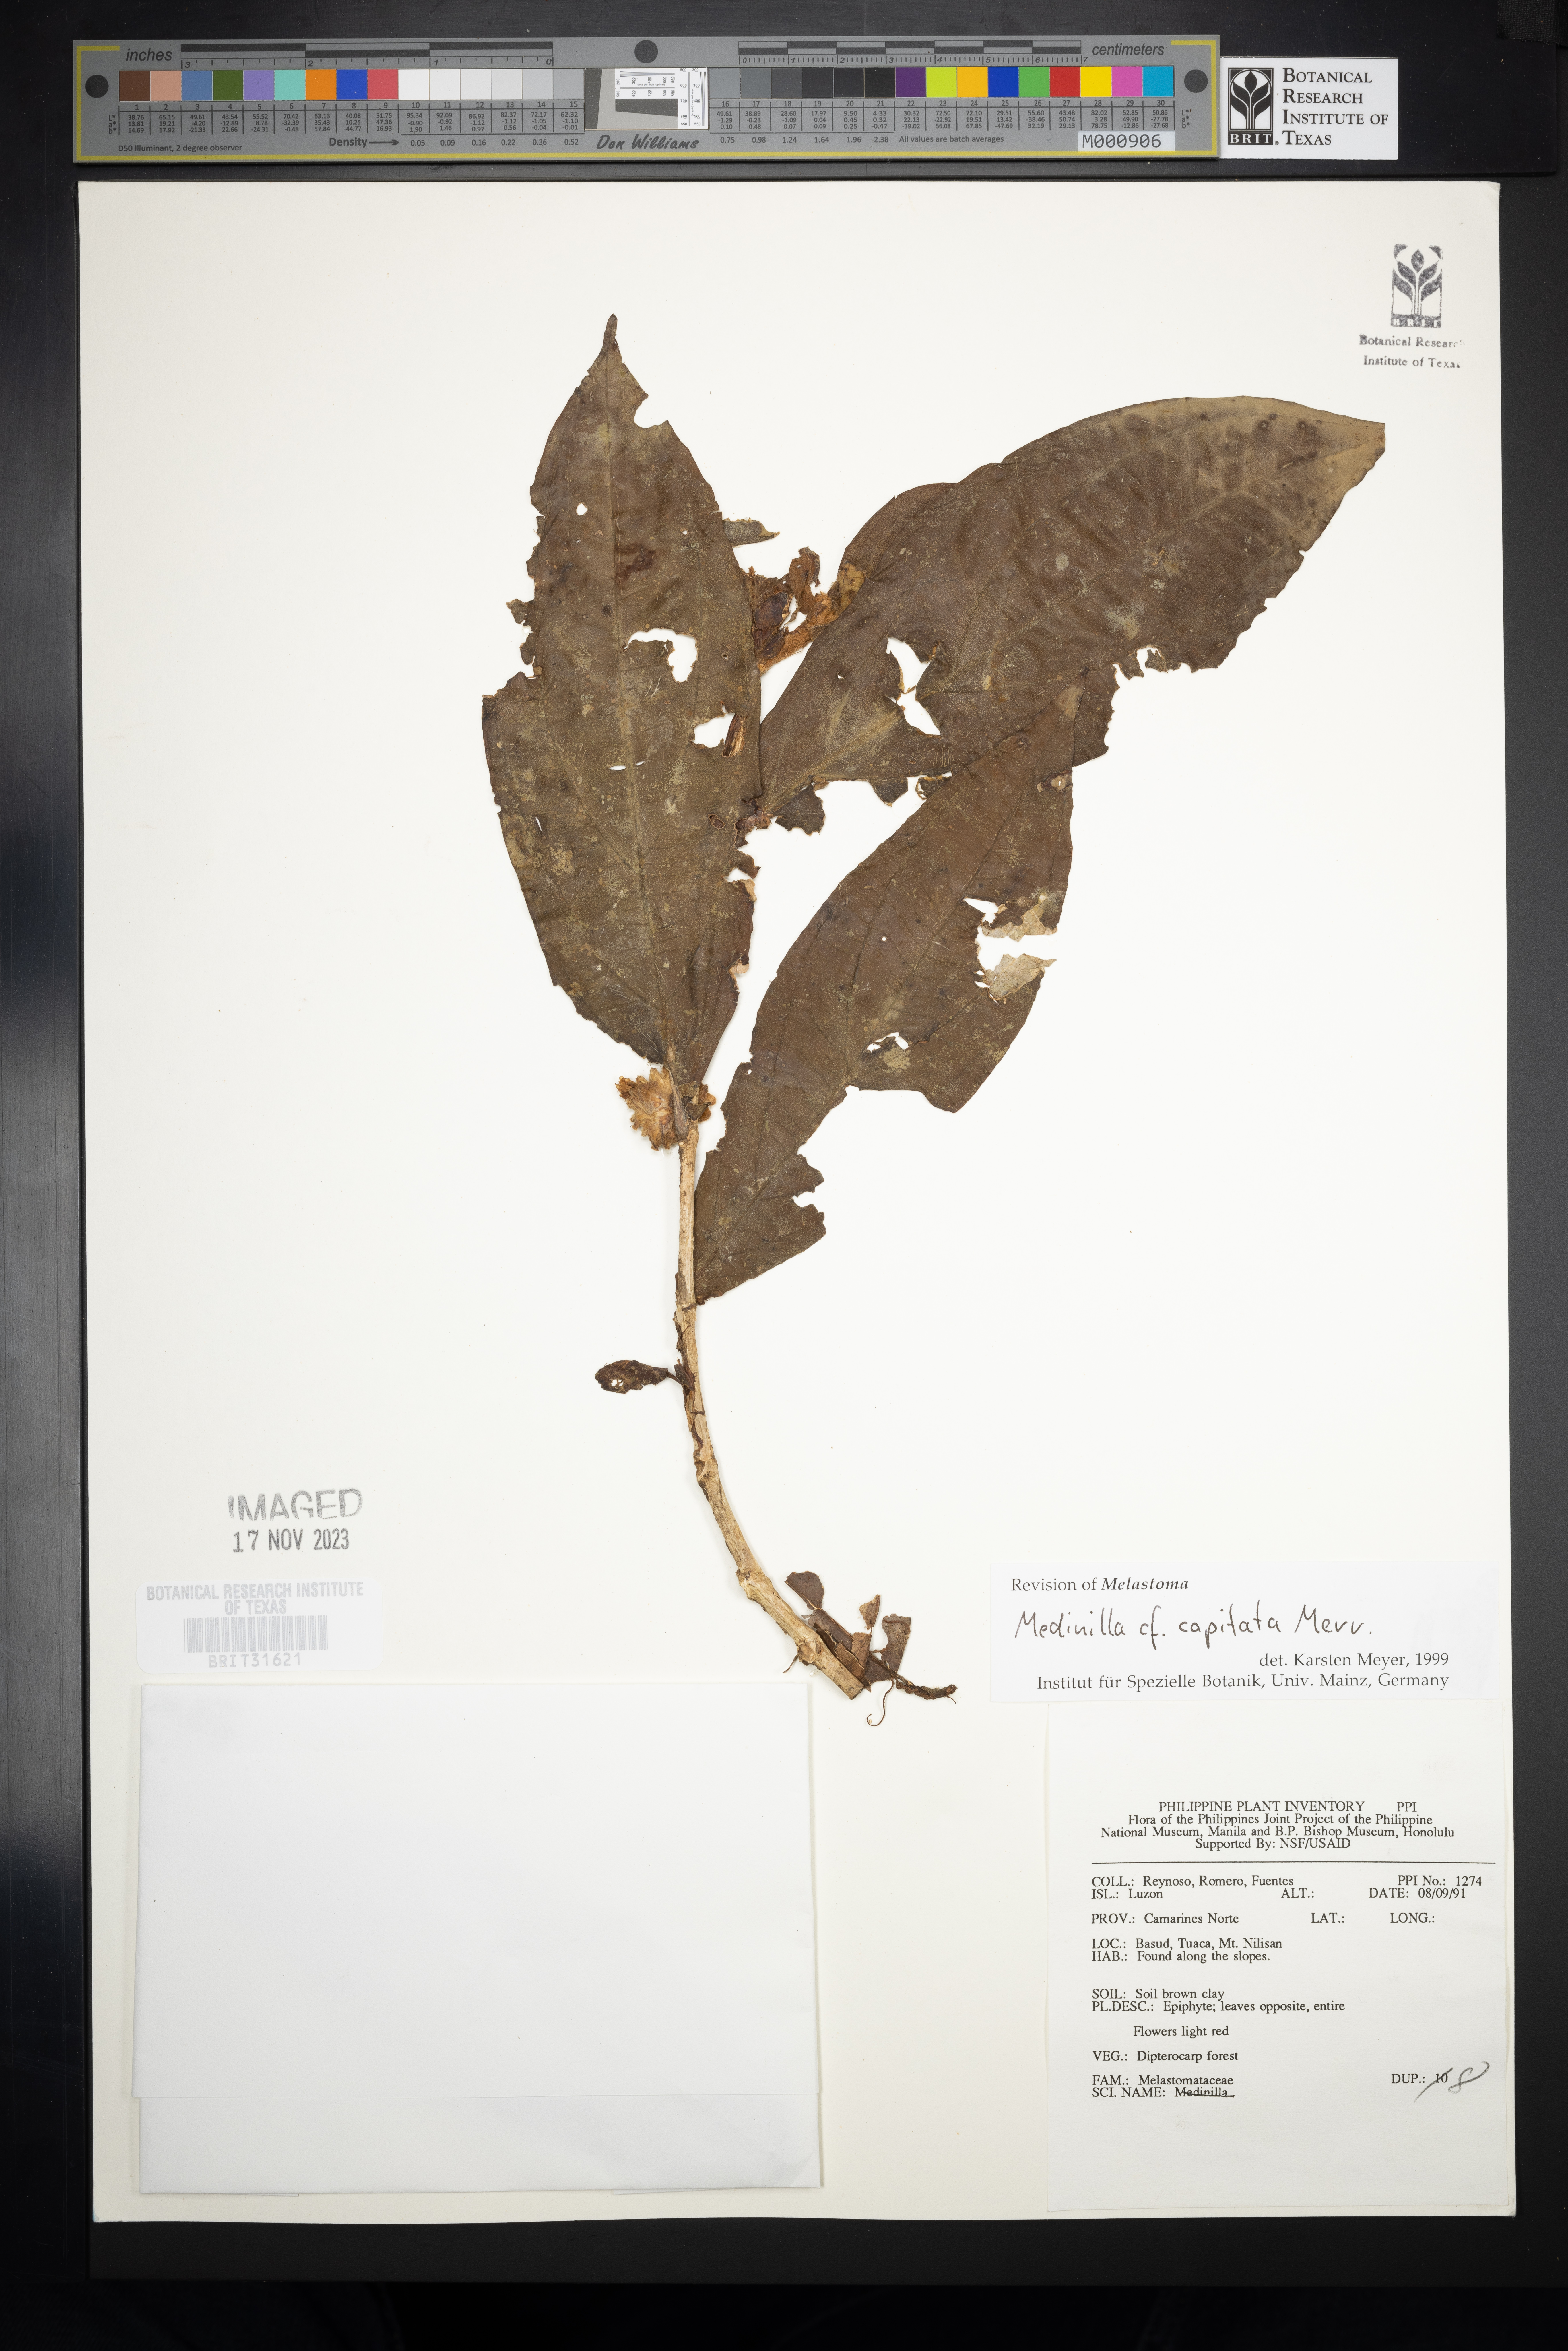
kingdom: Plantae
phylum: Tracheophyta
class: Magnoliopsida
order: Myrtales
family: Melastomataceae
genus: Medinilla
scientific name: Medinilla capitata
